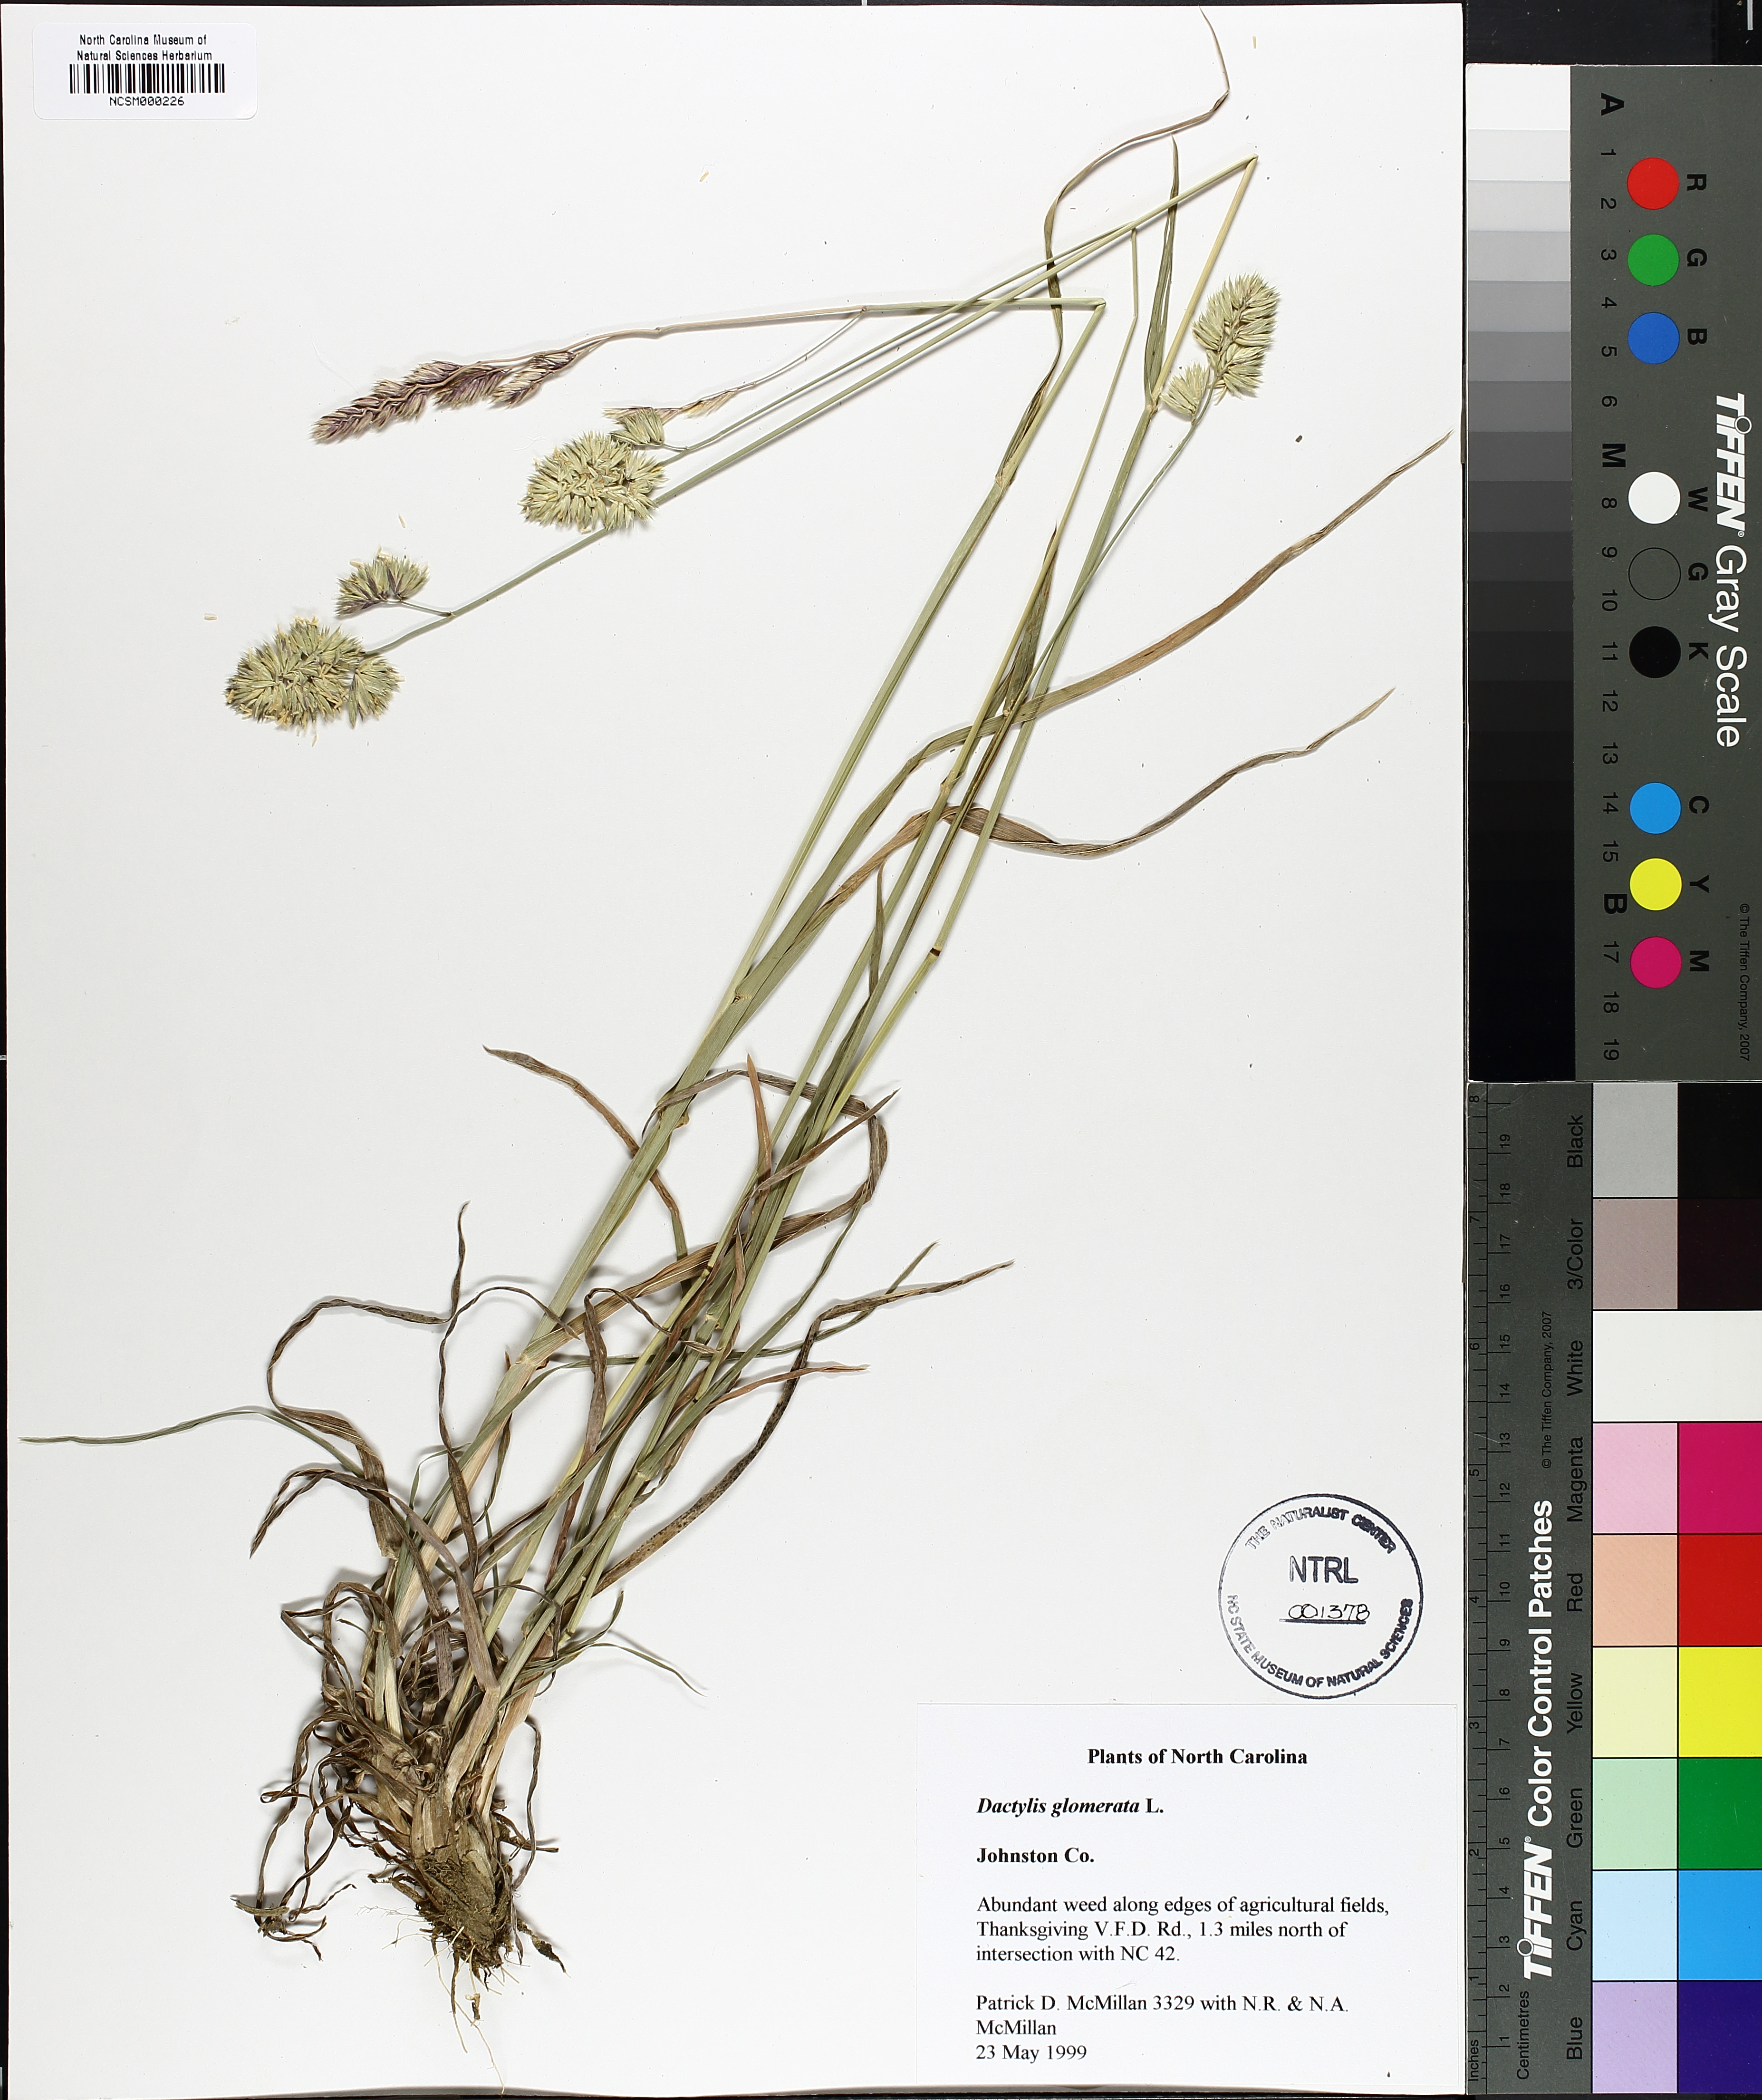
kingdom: Plantae
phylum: Tracheophyta
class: Liliopsida
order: Poales
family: Poaceae
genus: Dactylis
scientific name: Dactylis glomerata
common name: Orchardgrass
